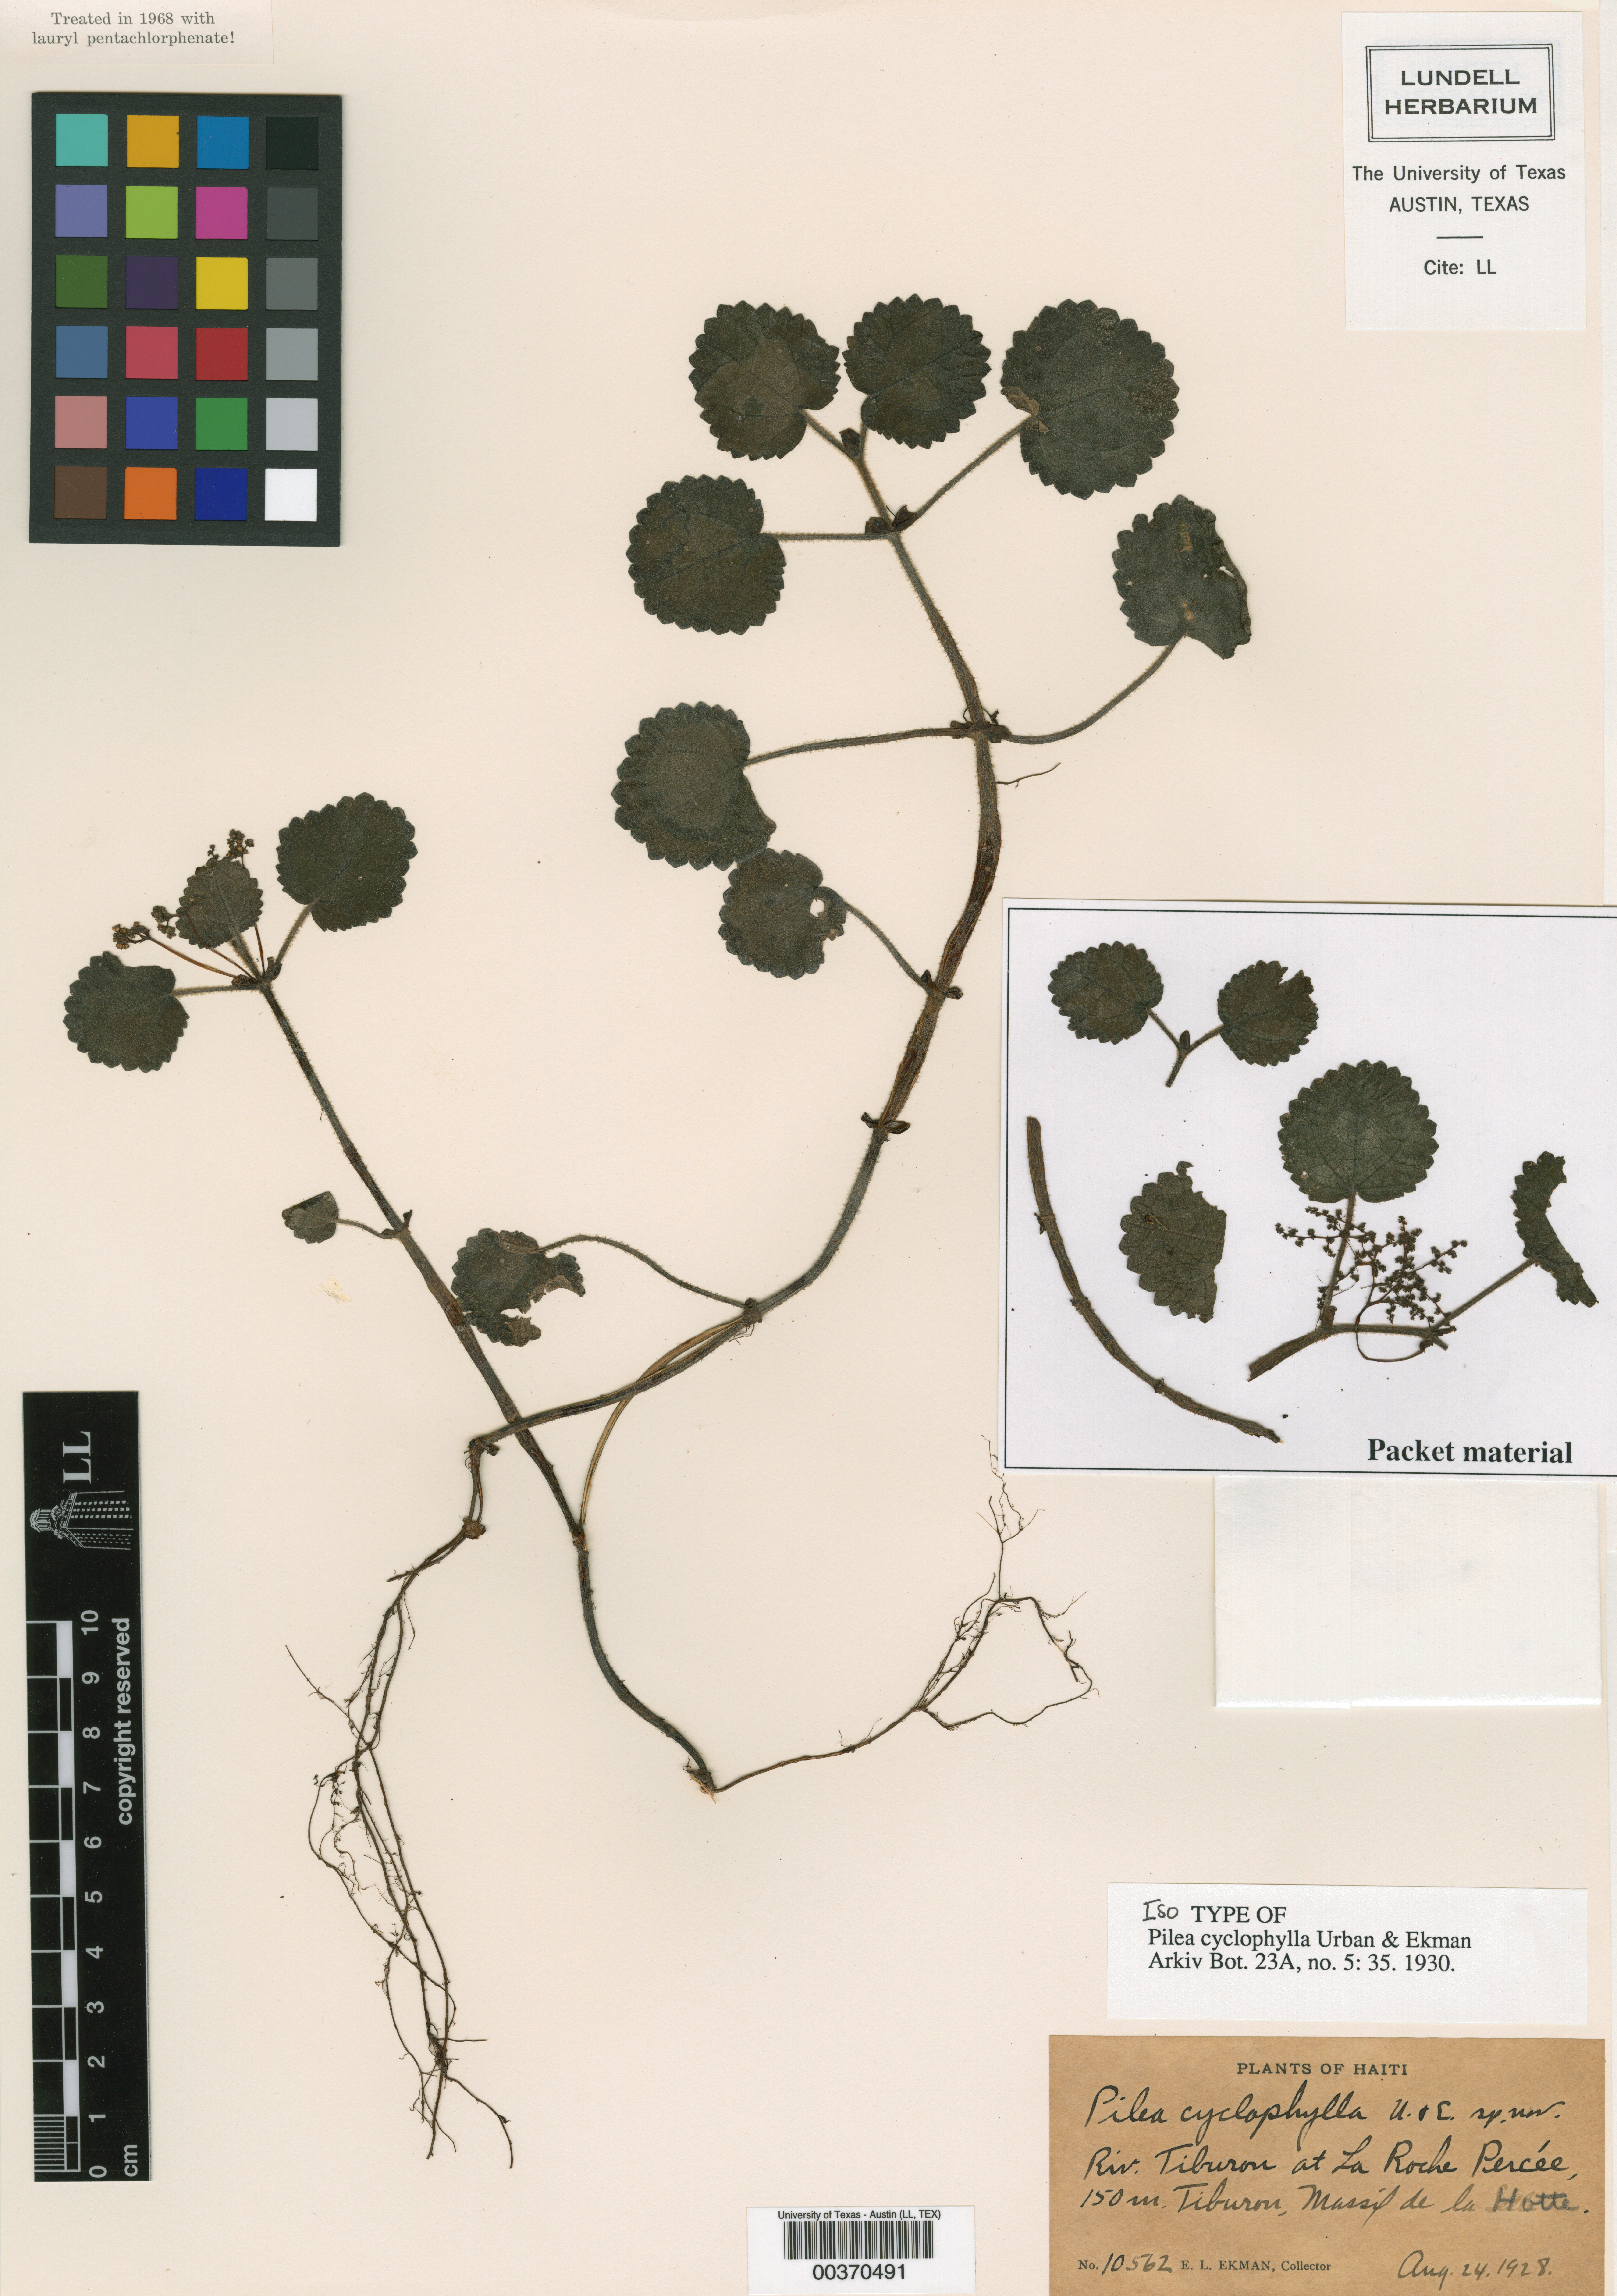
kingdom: Plantae
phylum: Tracheophyta
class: Magnoliopsida
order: Rosales
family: Urticaceae
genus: Pilea
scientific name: Pilea cyclophylla
